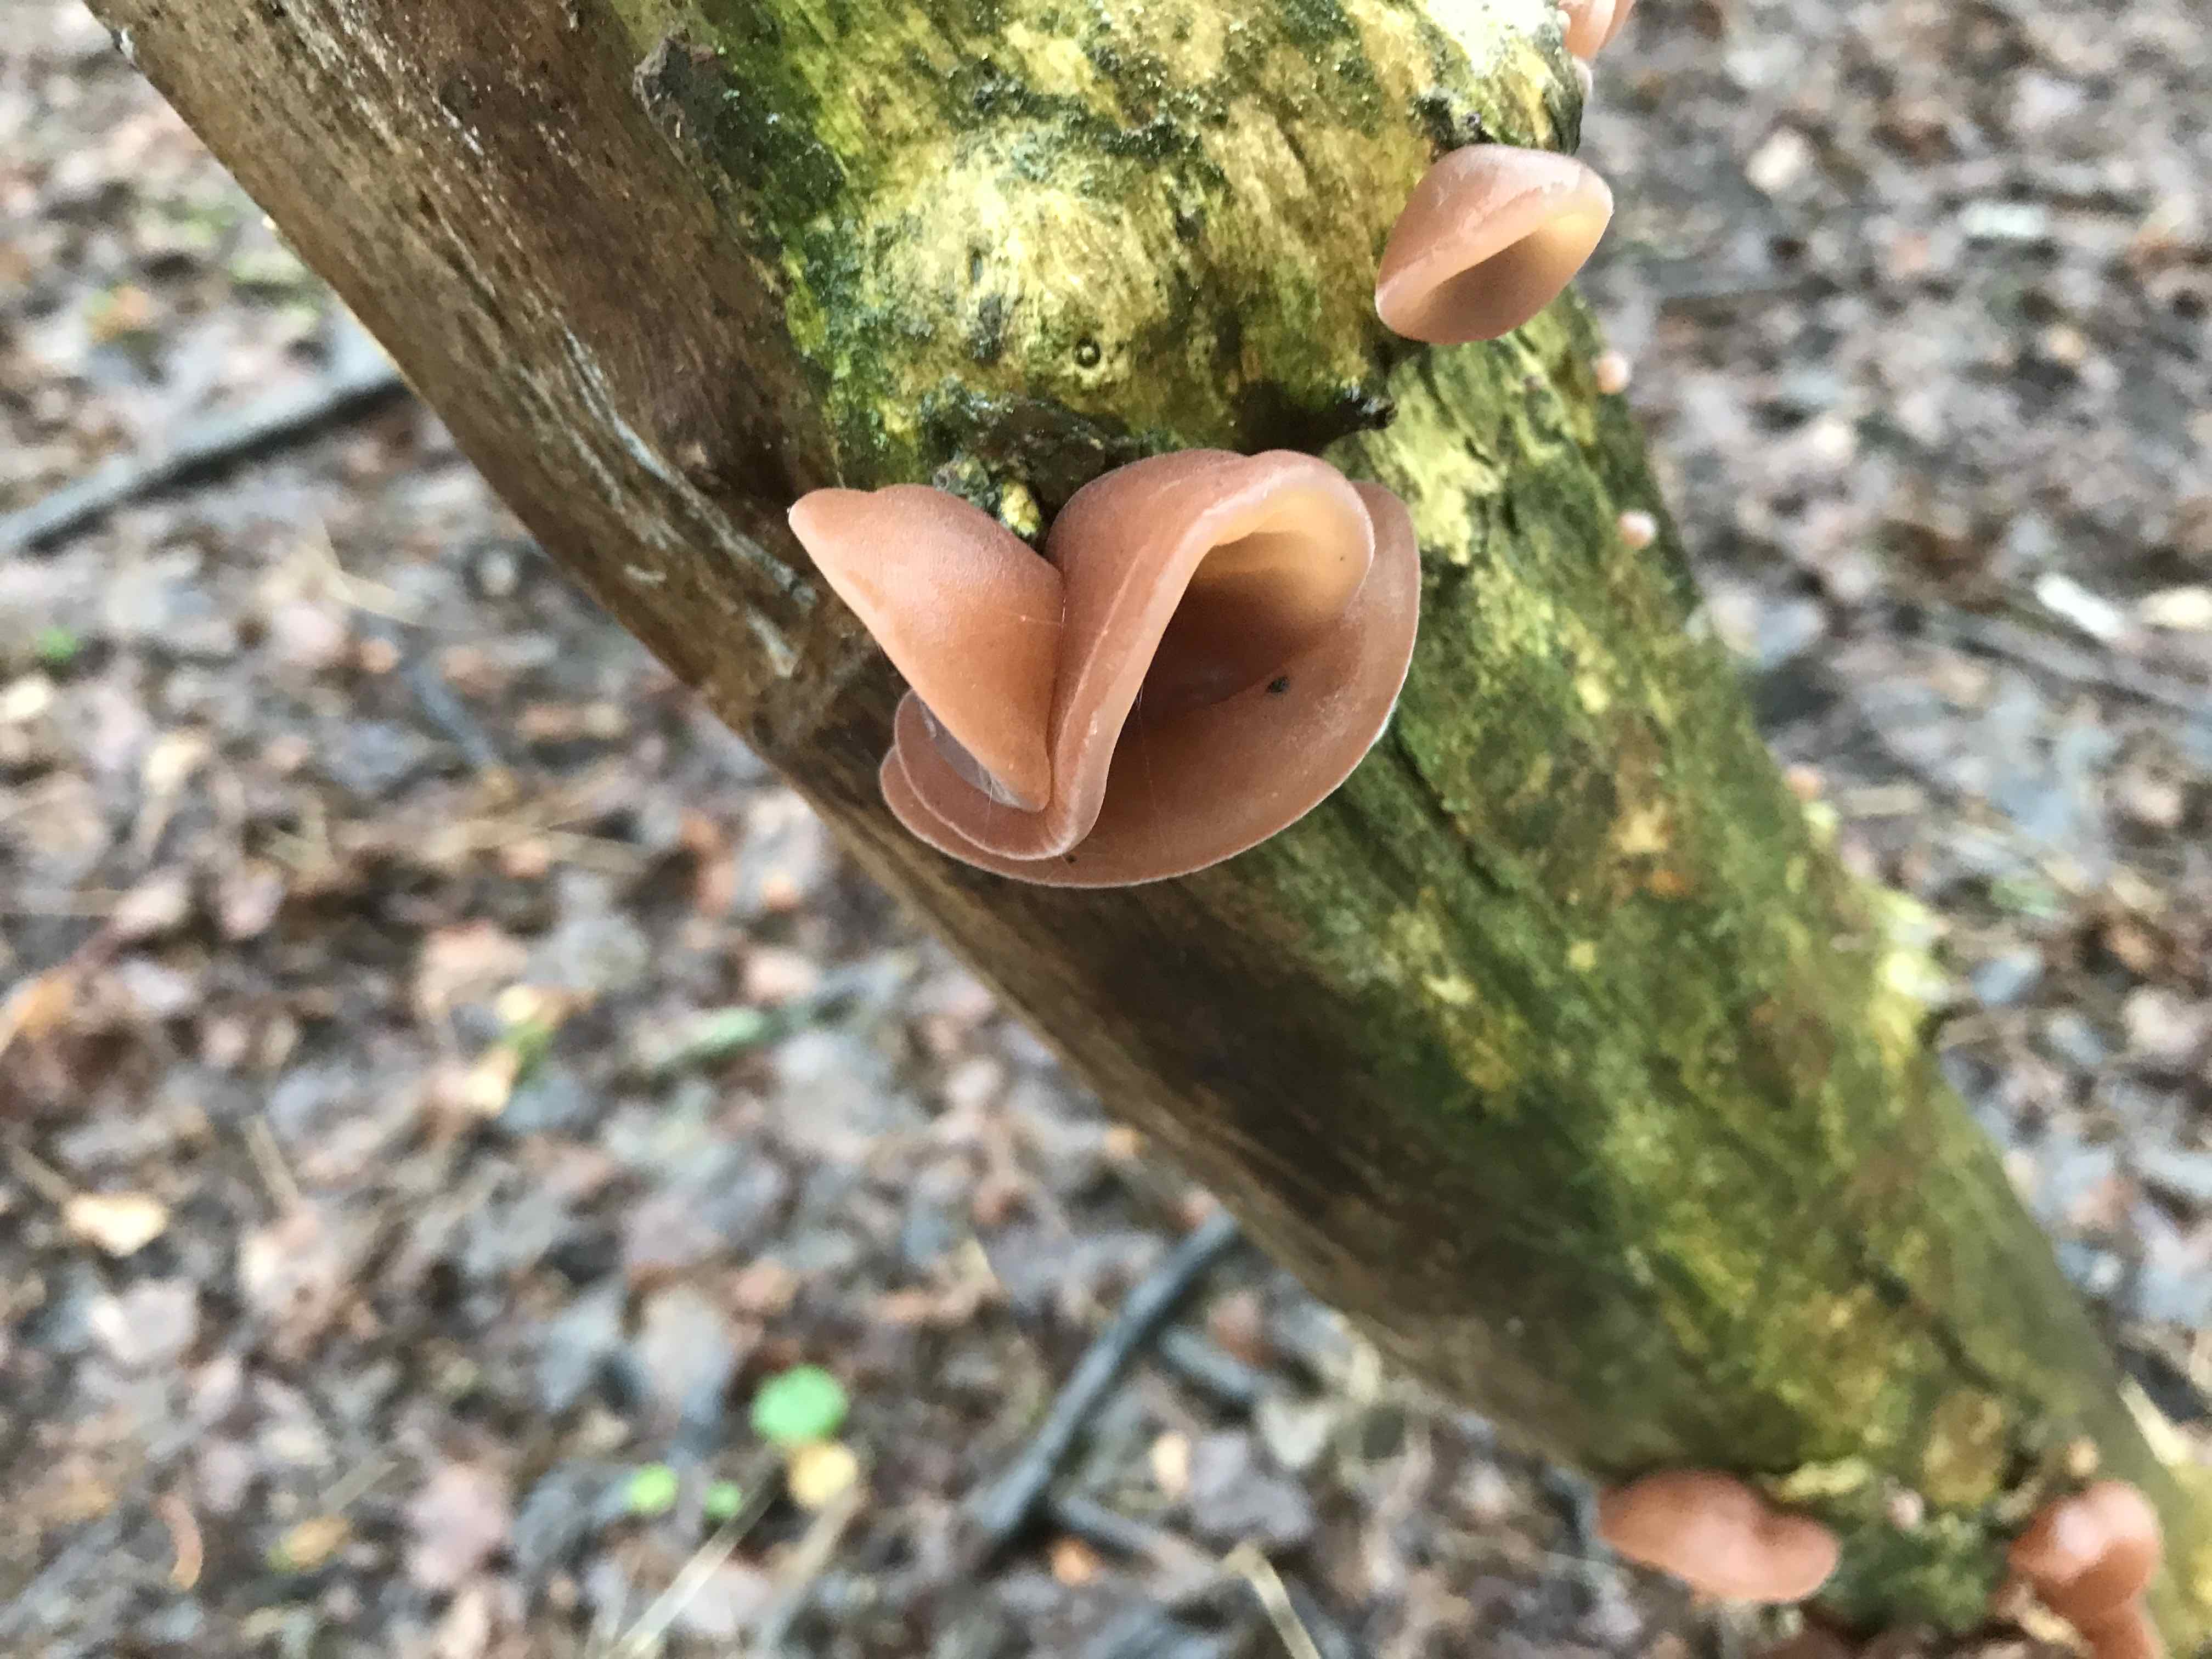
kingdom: Fungi
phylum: Basidiomycota
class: Agaricomycetes
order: Auriculariales
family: Auriculariaceae
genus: Auricularia
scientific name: Auricularia auricula-judae
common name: almindelig judasøre
